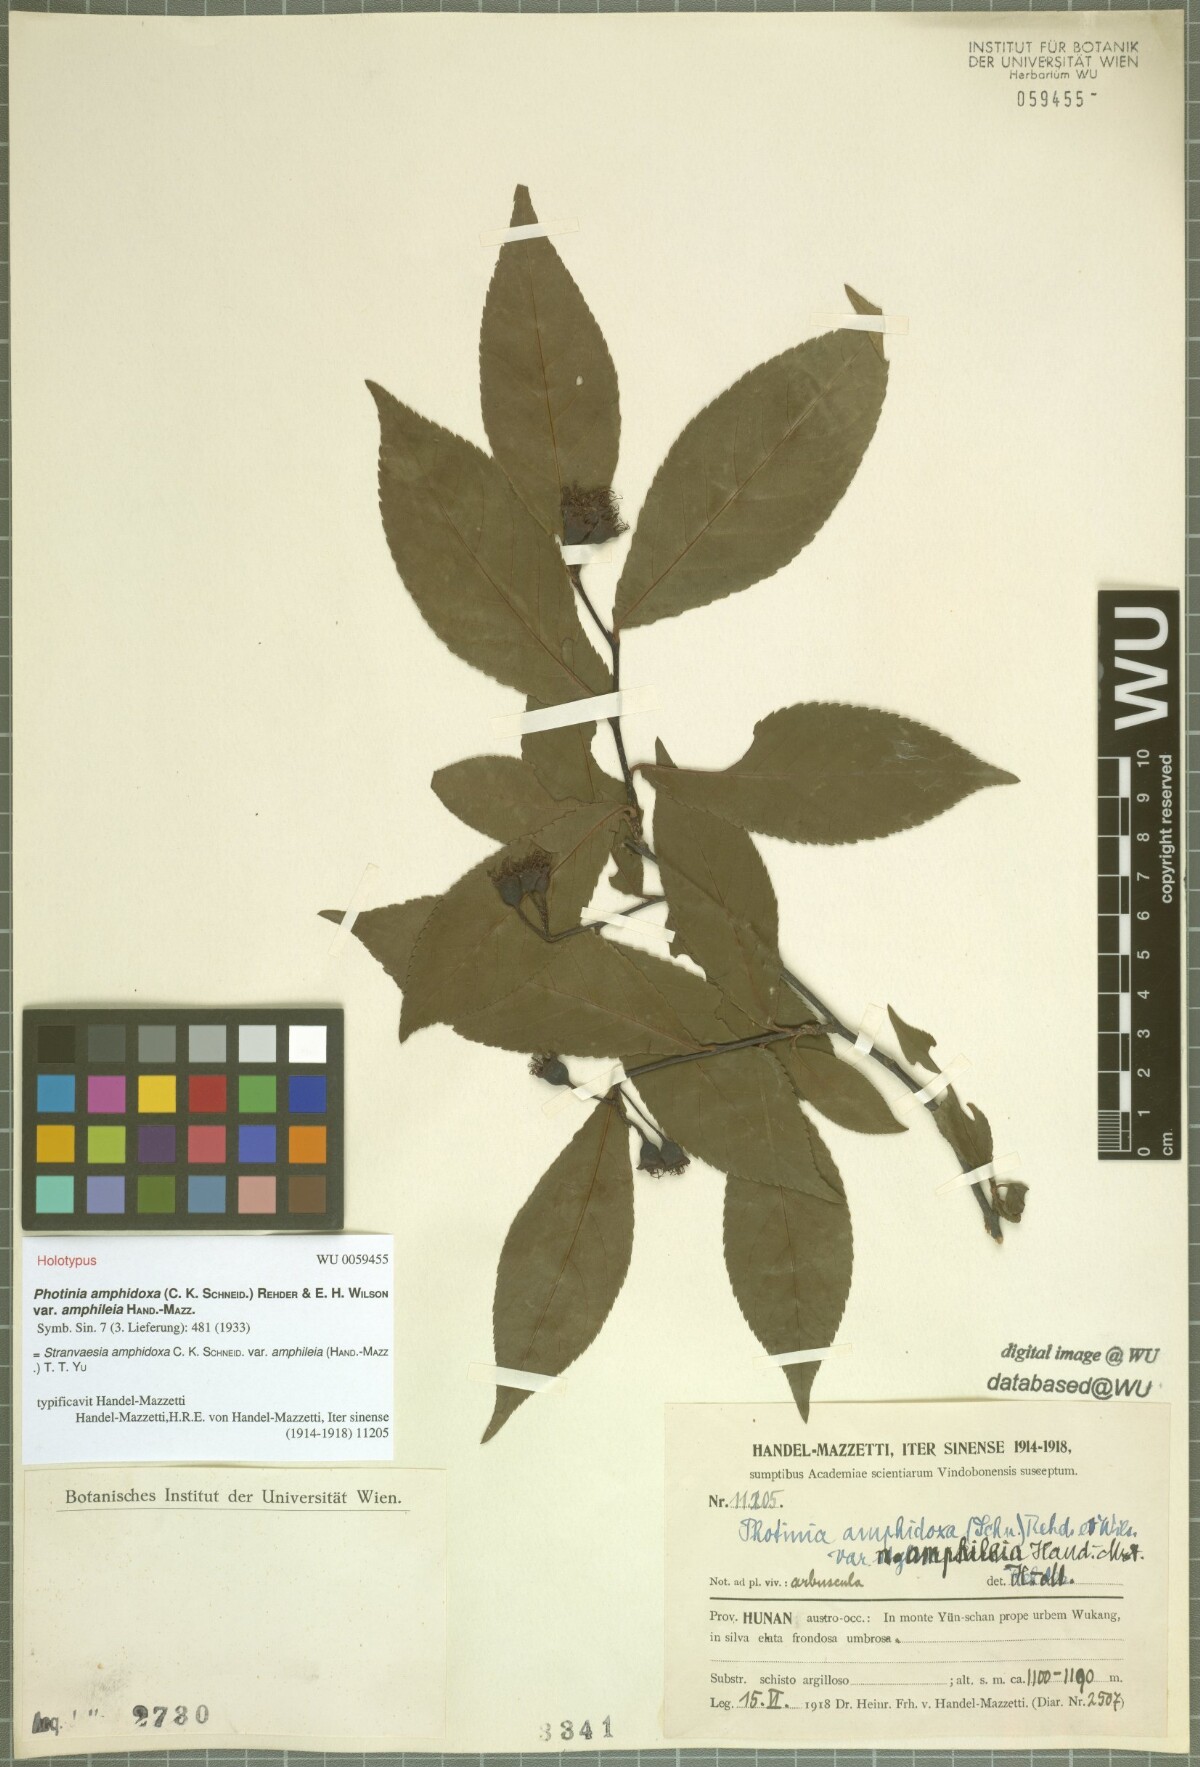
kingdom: Plantae
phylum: Tracheophyta
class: Magnoliopsida
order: Rosales
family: Rosaceae
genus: Pourthiaea
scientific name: Pourthiaea amphidoxa
